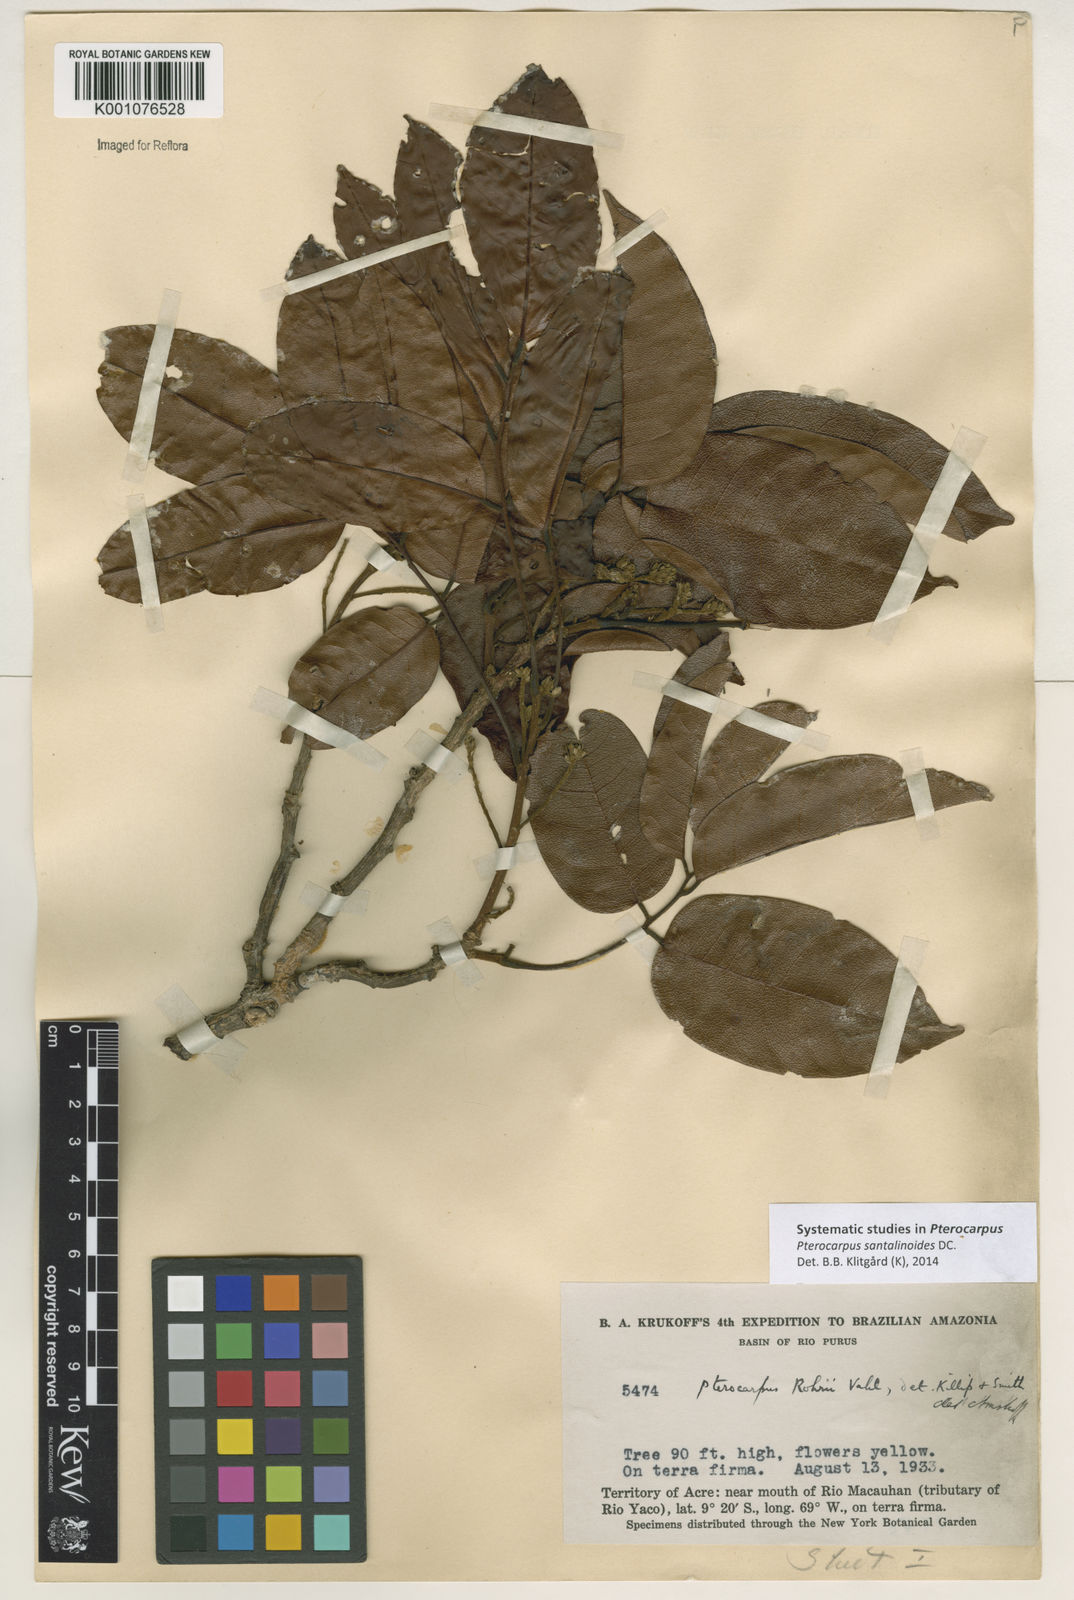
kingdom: Plantae
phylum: Tracheophyta
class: Magnoliopsida
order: Fabales
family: Fabaceae
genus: Pterocarpus
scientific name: Pterocarpus santalinoides
